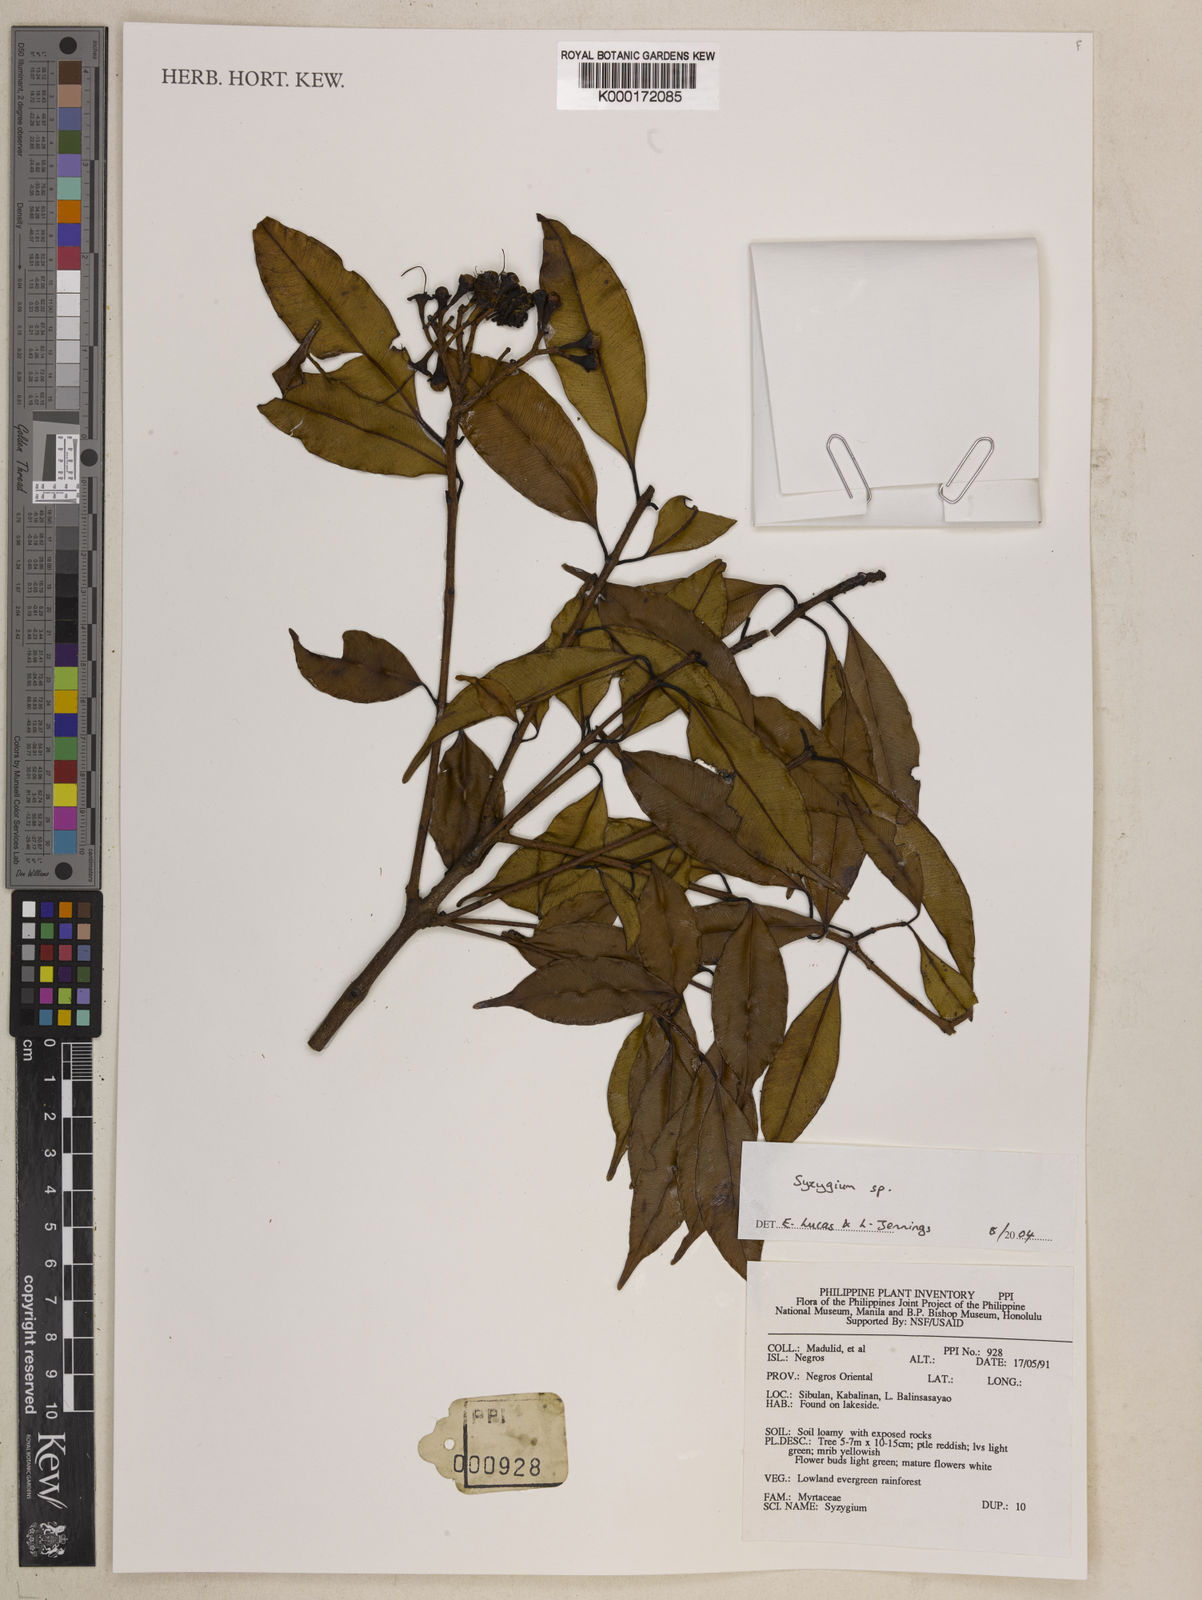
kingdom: Plantae
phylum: Tracheophyta
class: Magnoliopsida
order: Myrtales
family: Myrtaceae
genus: Syzygium
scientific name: Syzygium
